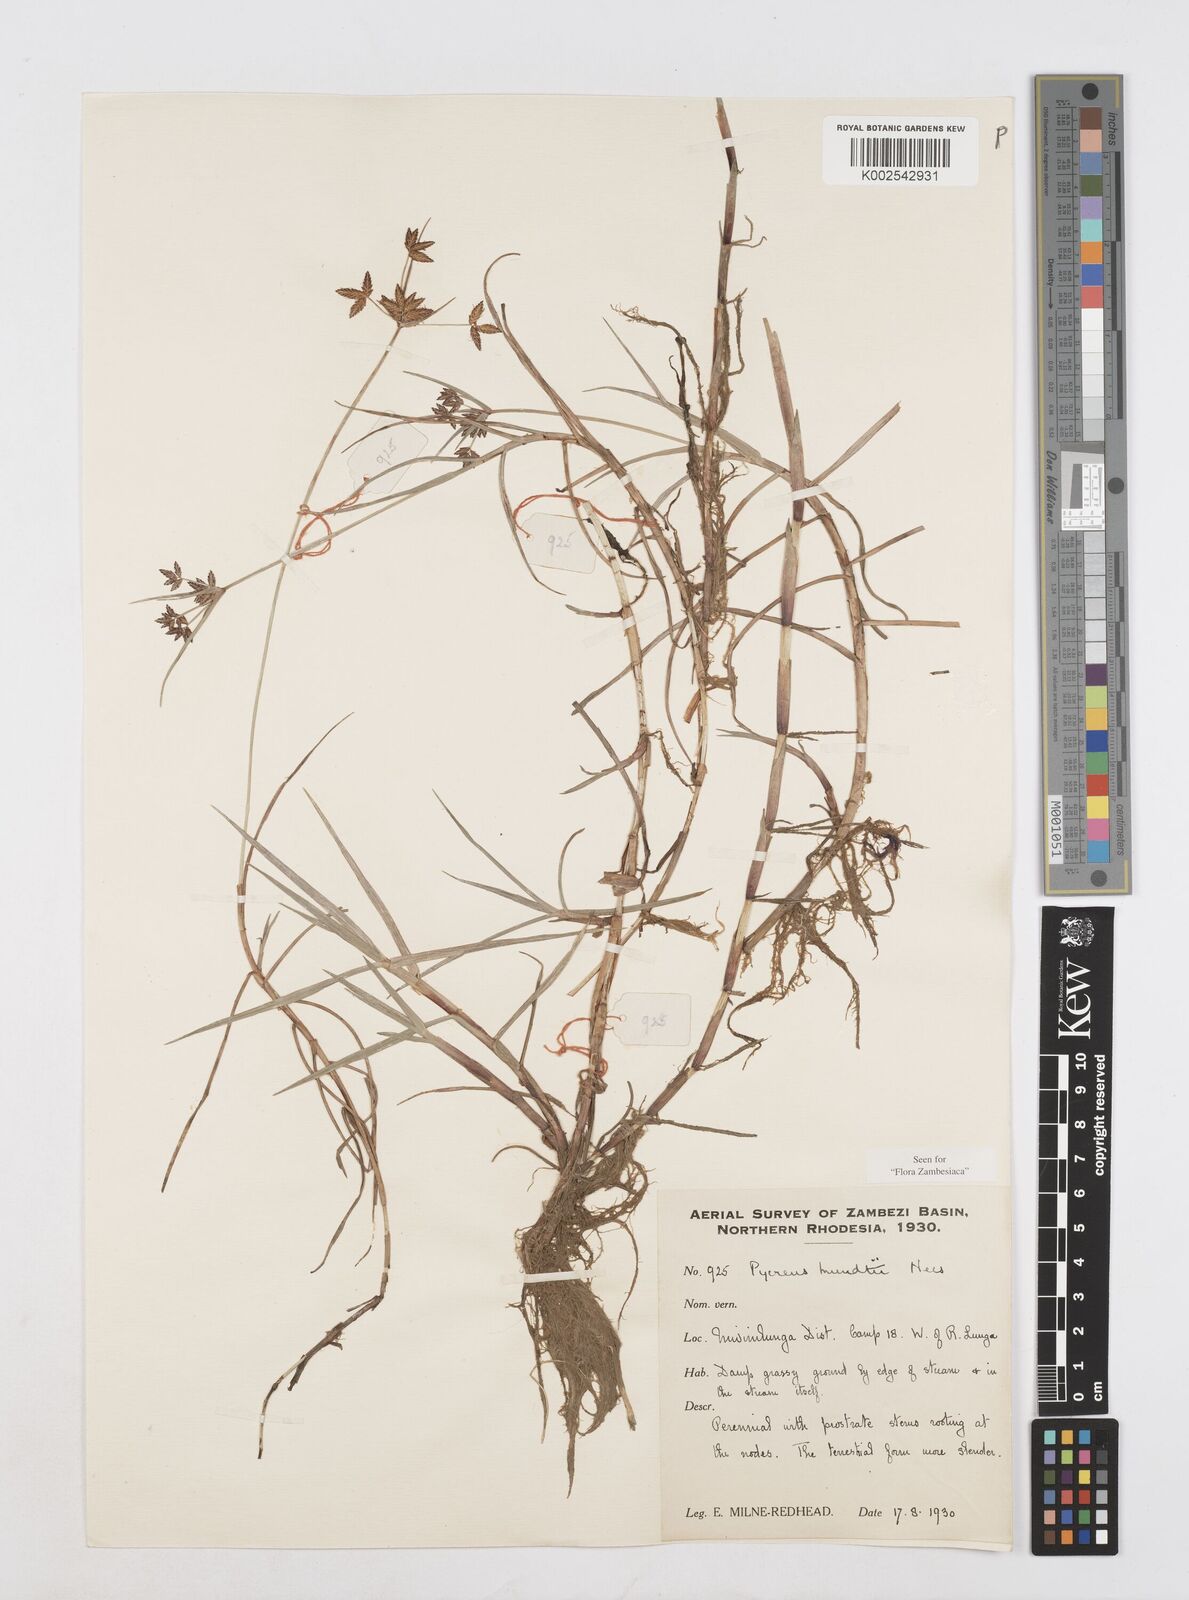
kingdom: Plantae
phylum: Tracheophyta
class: Liliopsida
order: Poales
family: Cyperaceae
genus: Cyperus
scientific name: Cyperus mundii
